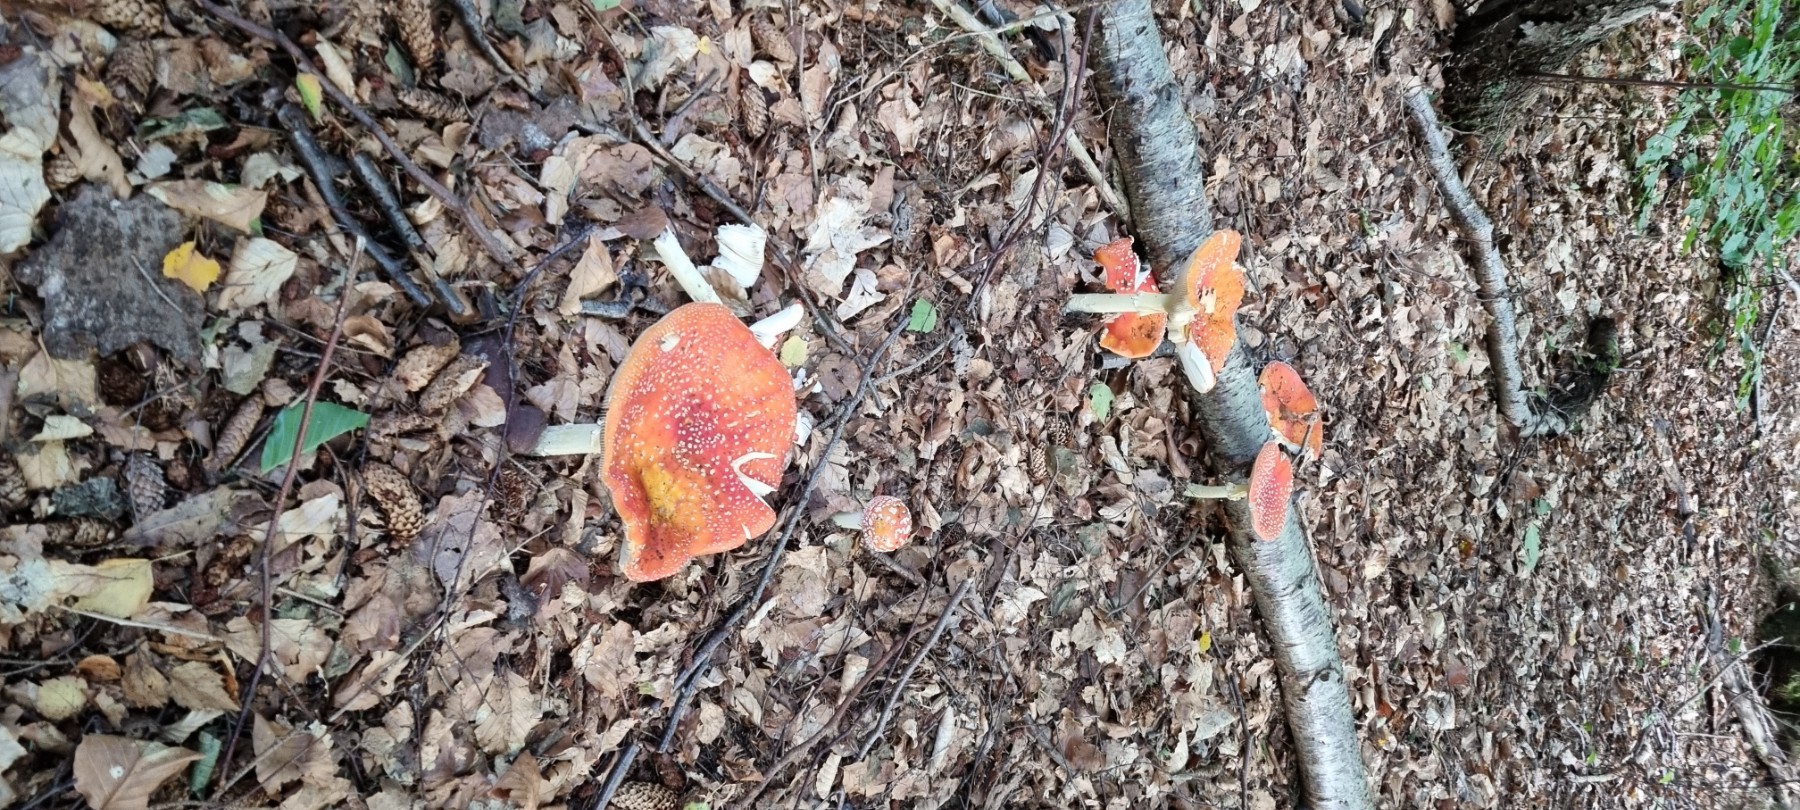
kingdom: Fungi
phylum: Basidiomycota
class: Agaricomycetes
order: Agaricales
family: Amanitaceae
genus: Amanita
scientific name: Amanita muscaria
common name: rød fluesvamp
